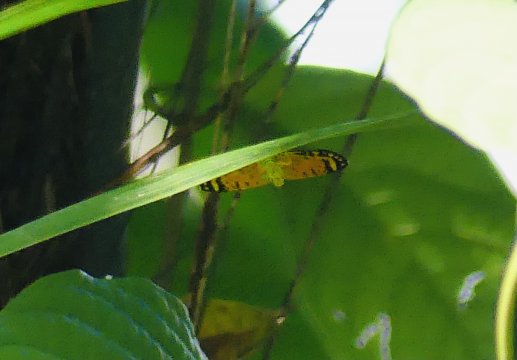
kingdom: Animalia
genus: Symmachia
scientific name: Symmachia xypete
